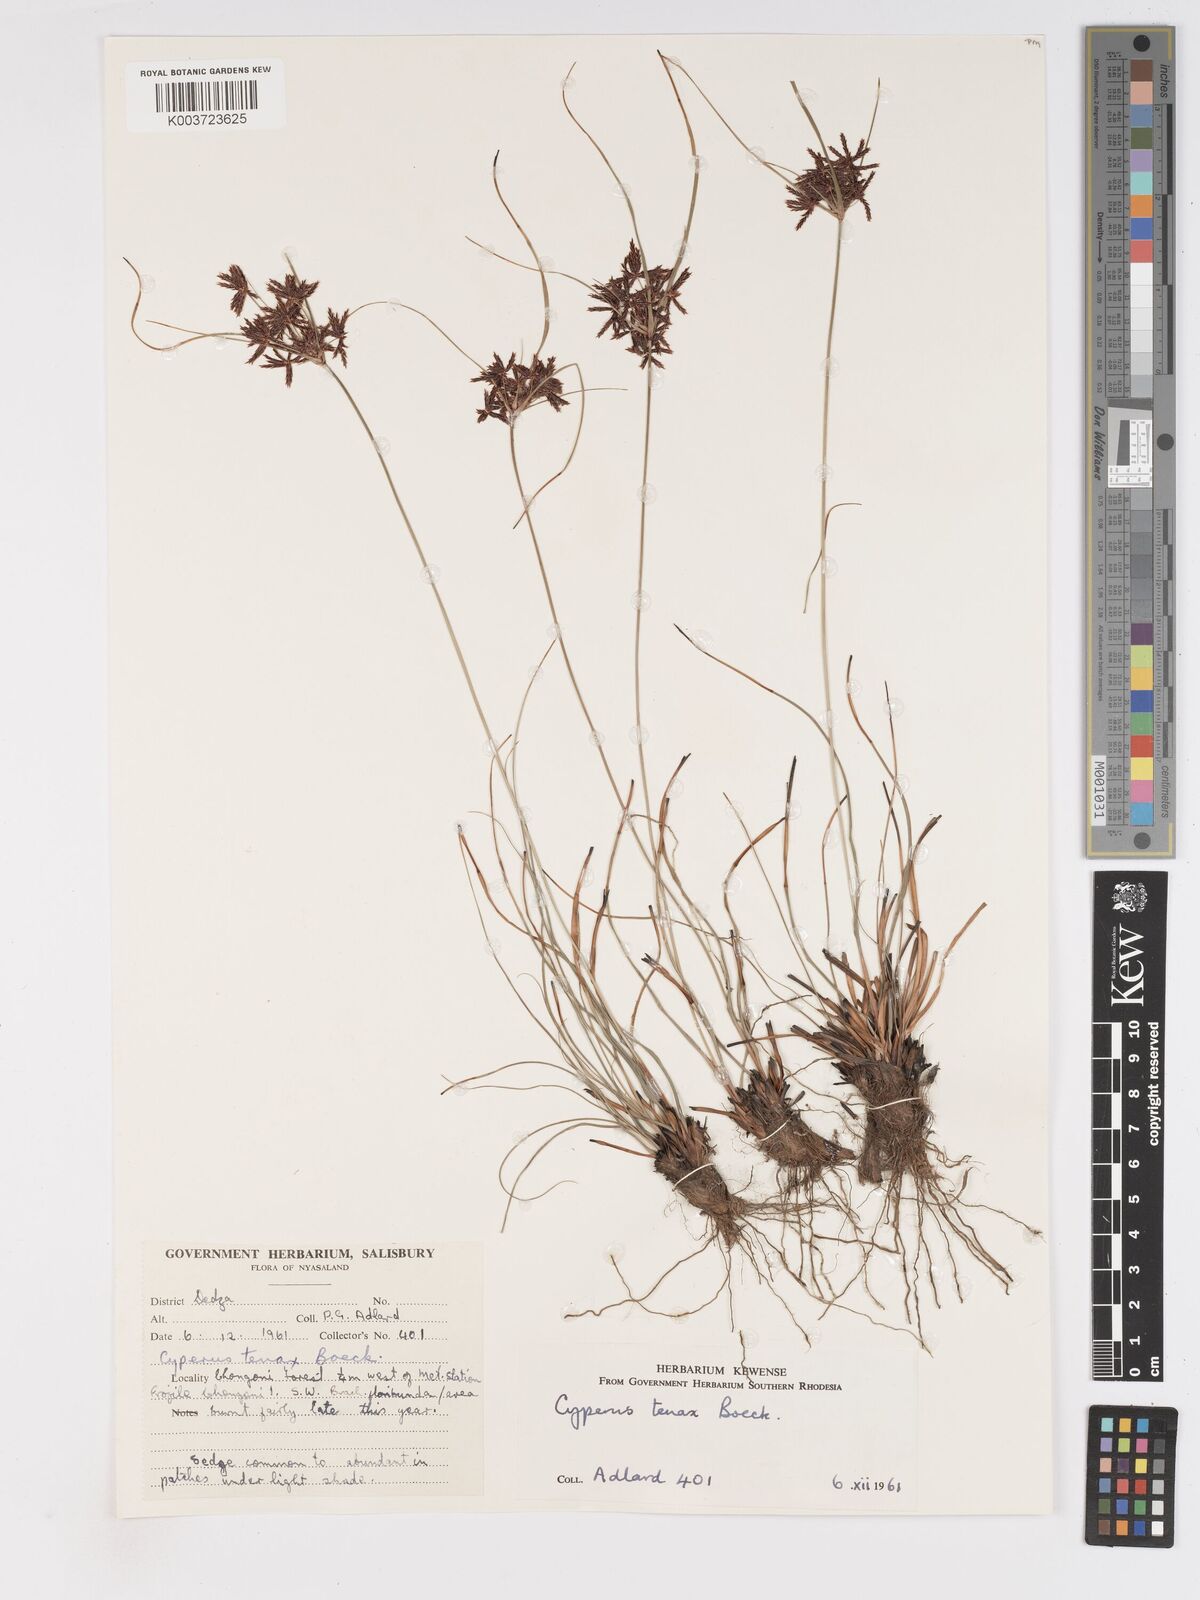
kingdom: Plantae
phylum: Tracheophyta
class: Liliopsida
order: Poales
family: Cyperaceae
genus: Cyperus
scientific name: Cyperus tenax
